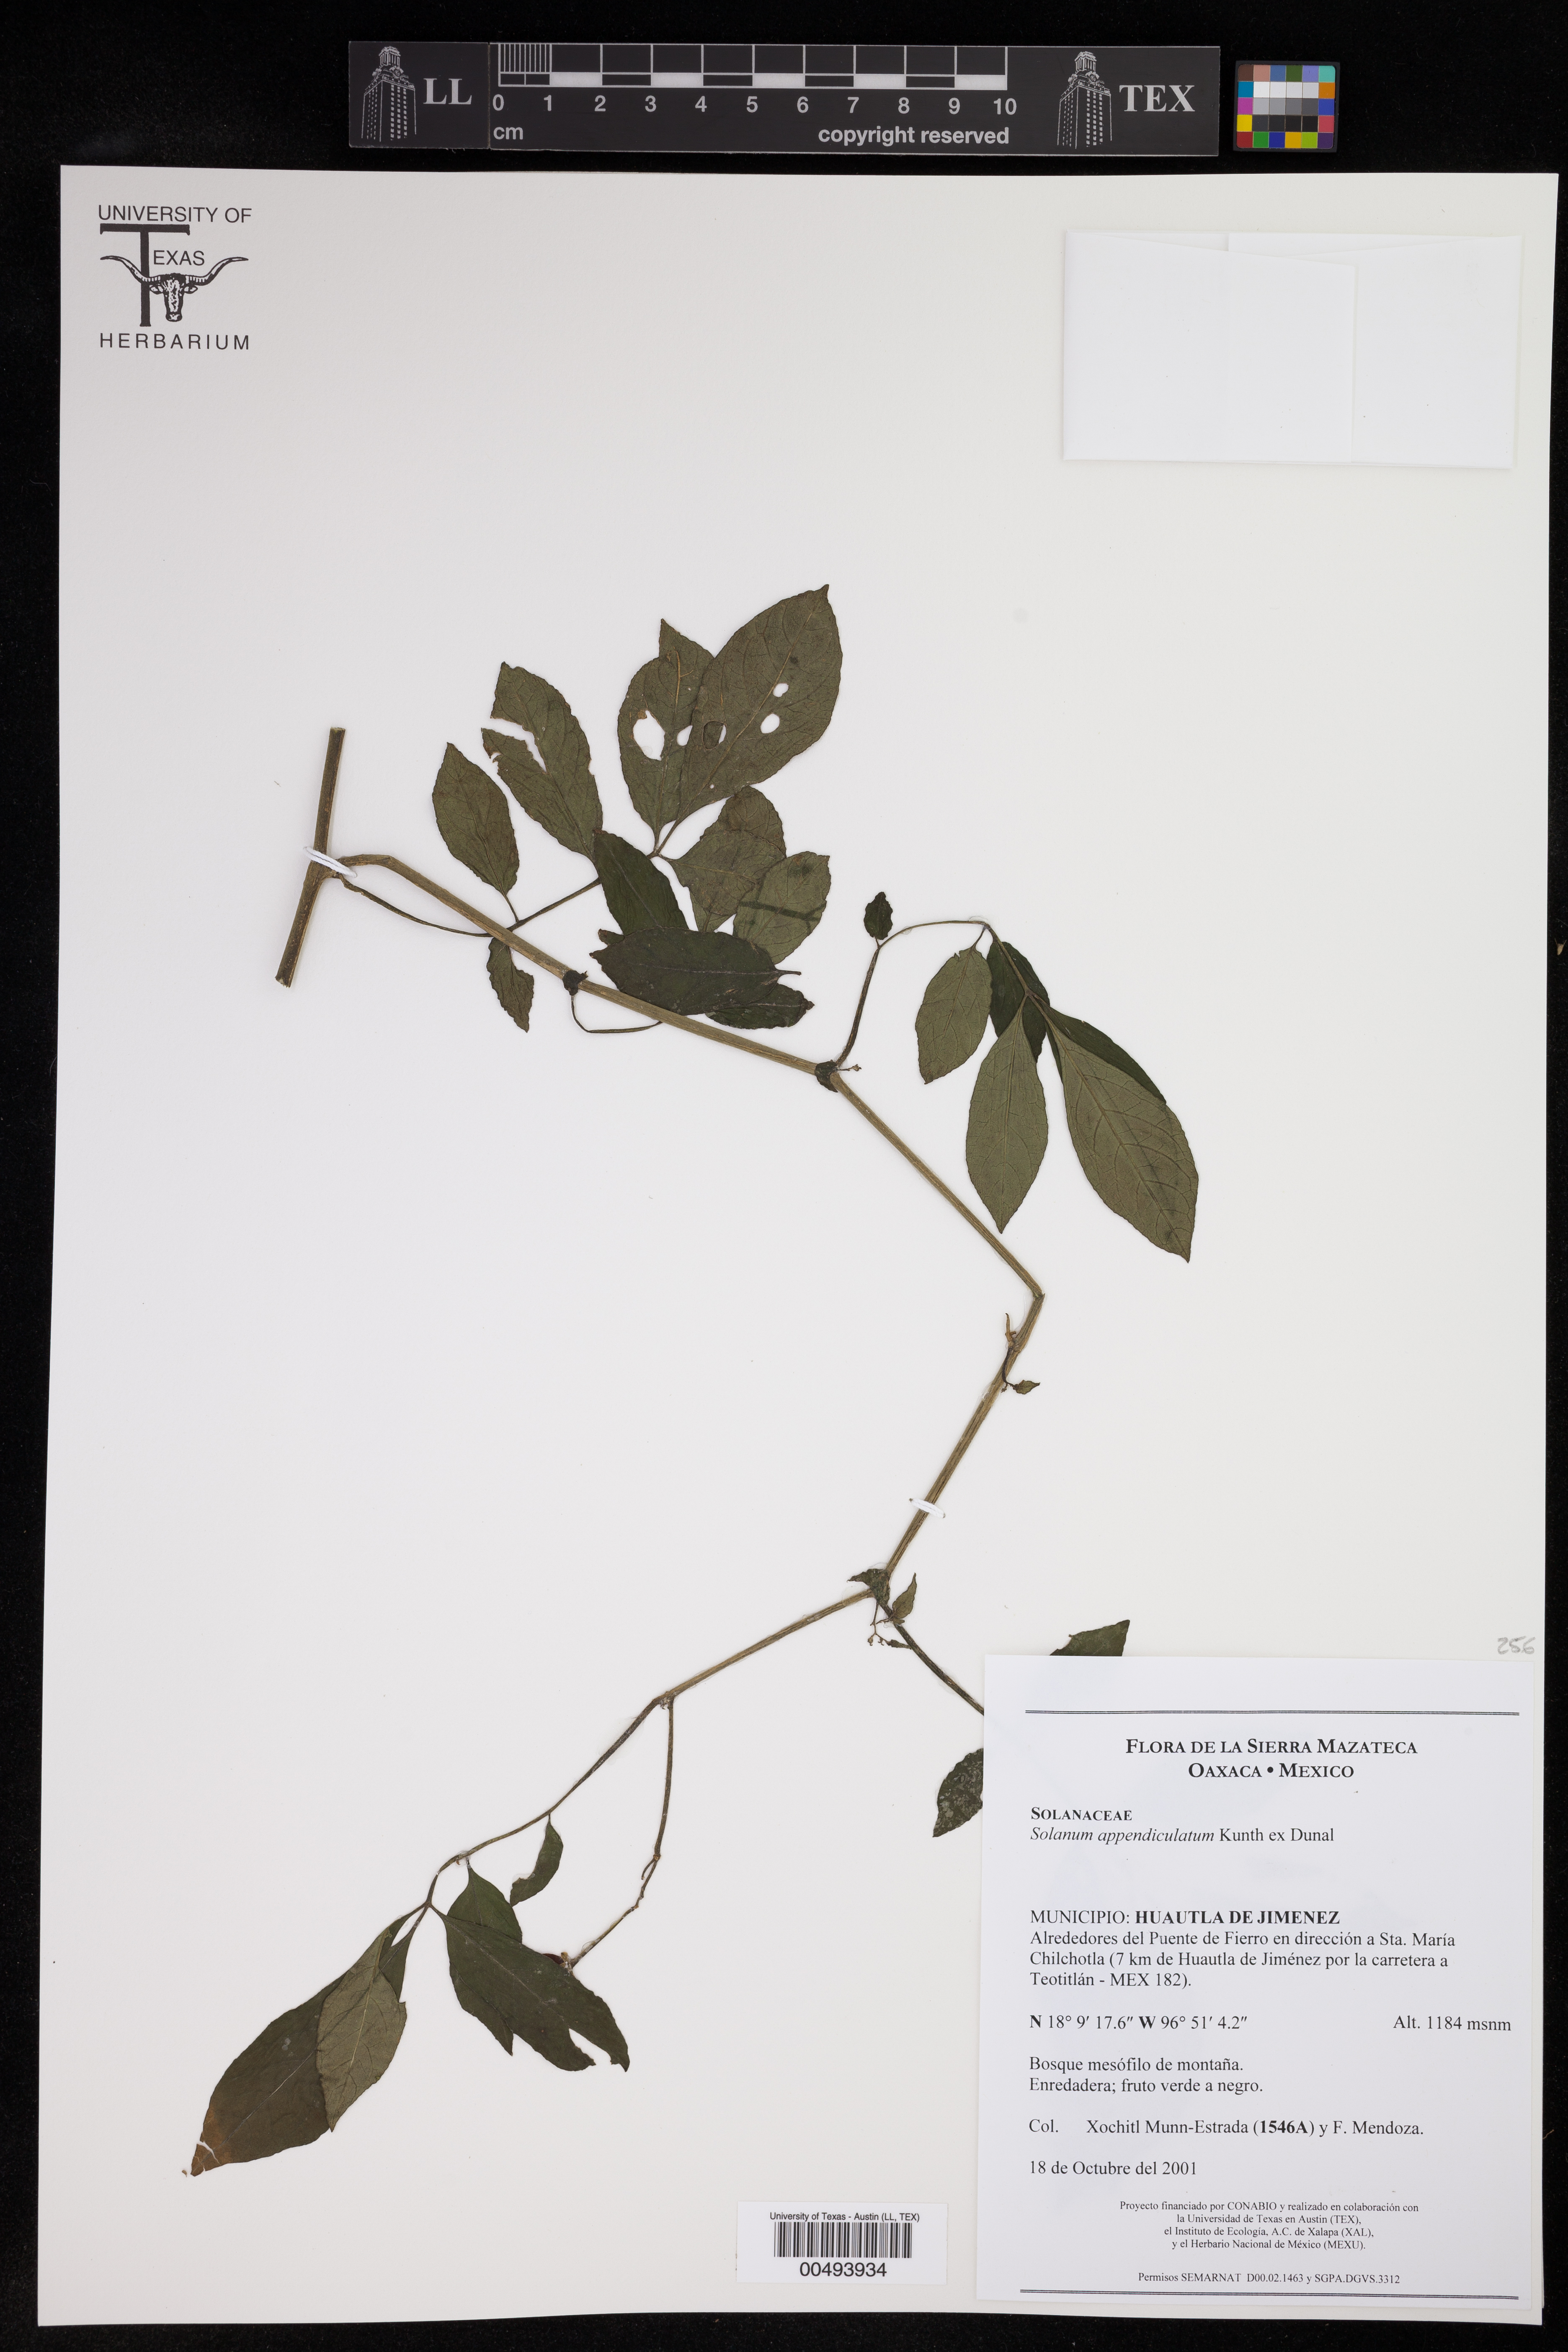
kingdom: Plantae
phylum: Tracheophyta
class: Magnoliopsida
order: Solanales
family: Solanaceae
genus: Solanum
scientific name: Solanum appendiculatum
